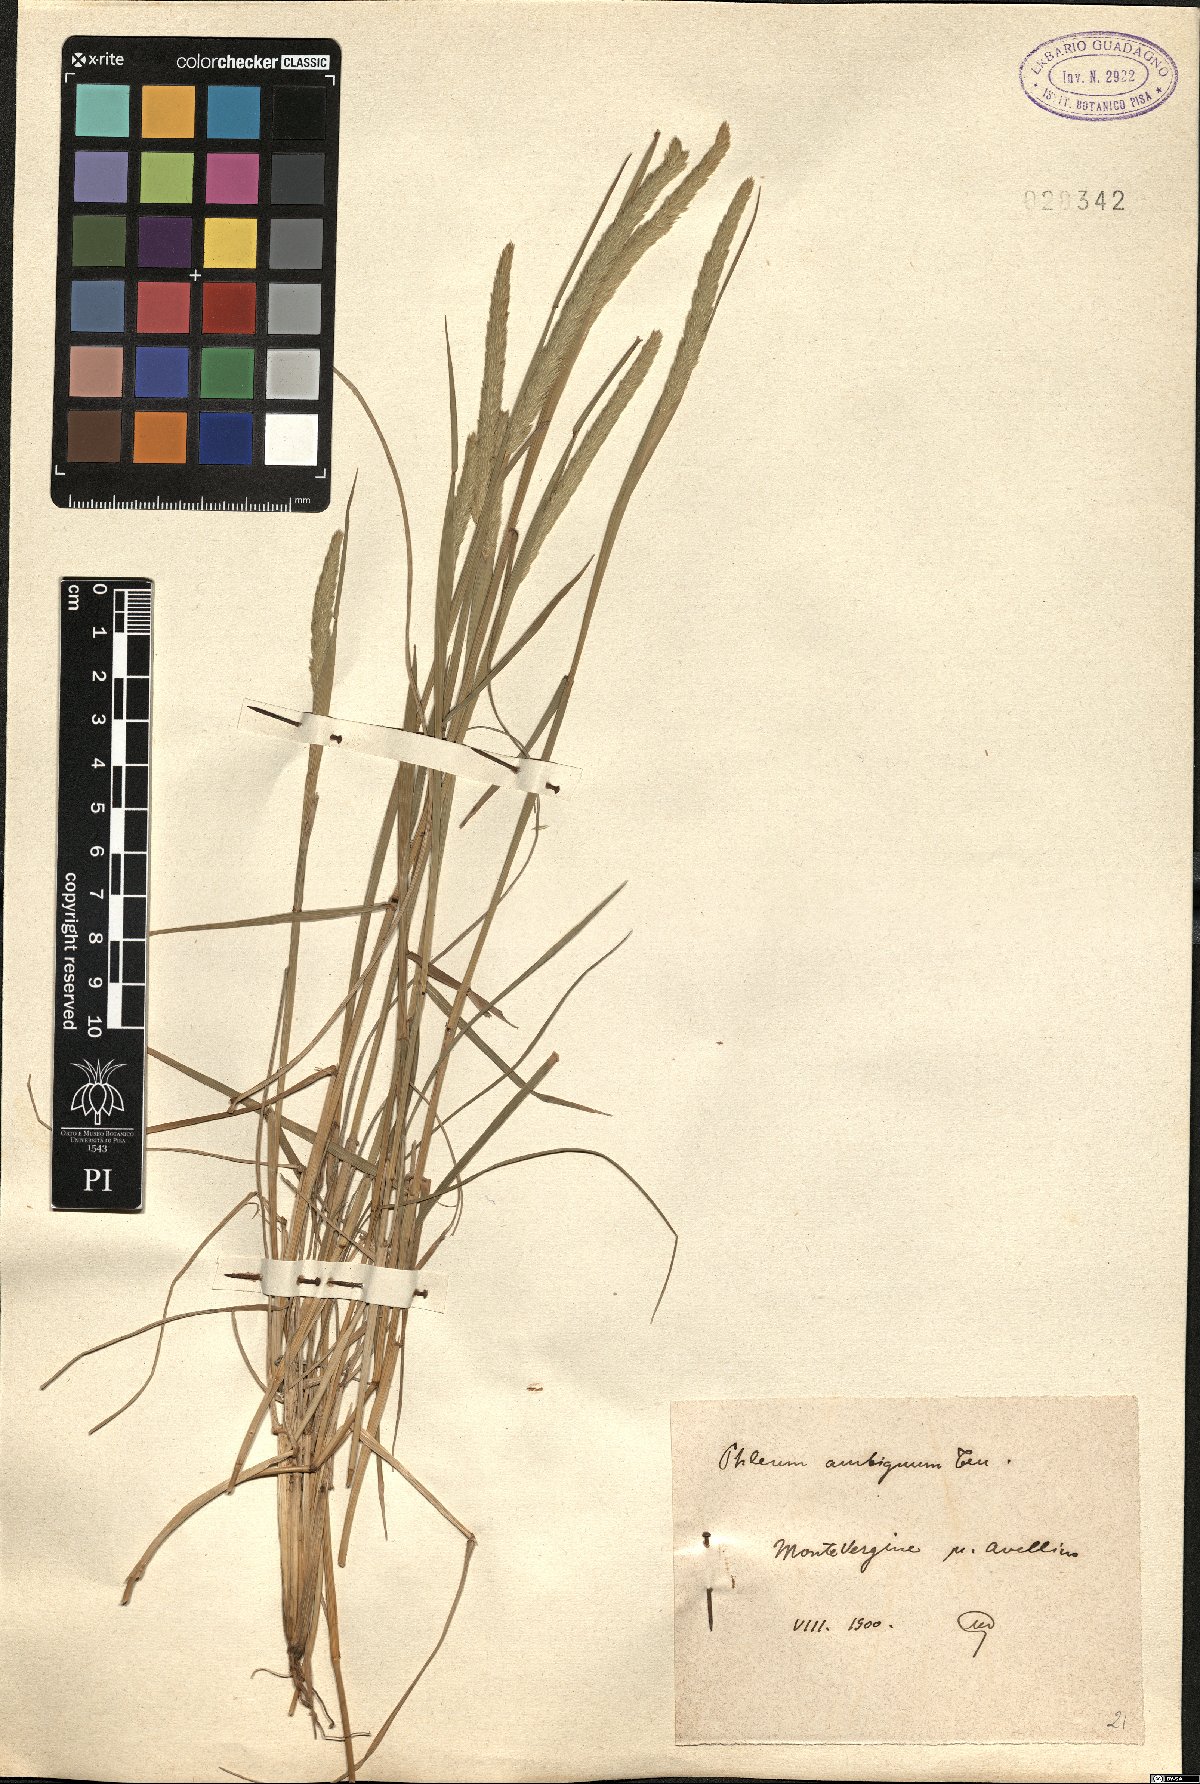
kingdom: Plantae
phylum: Tracheophyta
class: Liliopsida
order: Poales
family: Poaceae
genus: Phleum
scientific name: Phleum hirsutum
